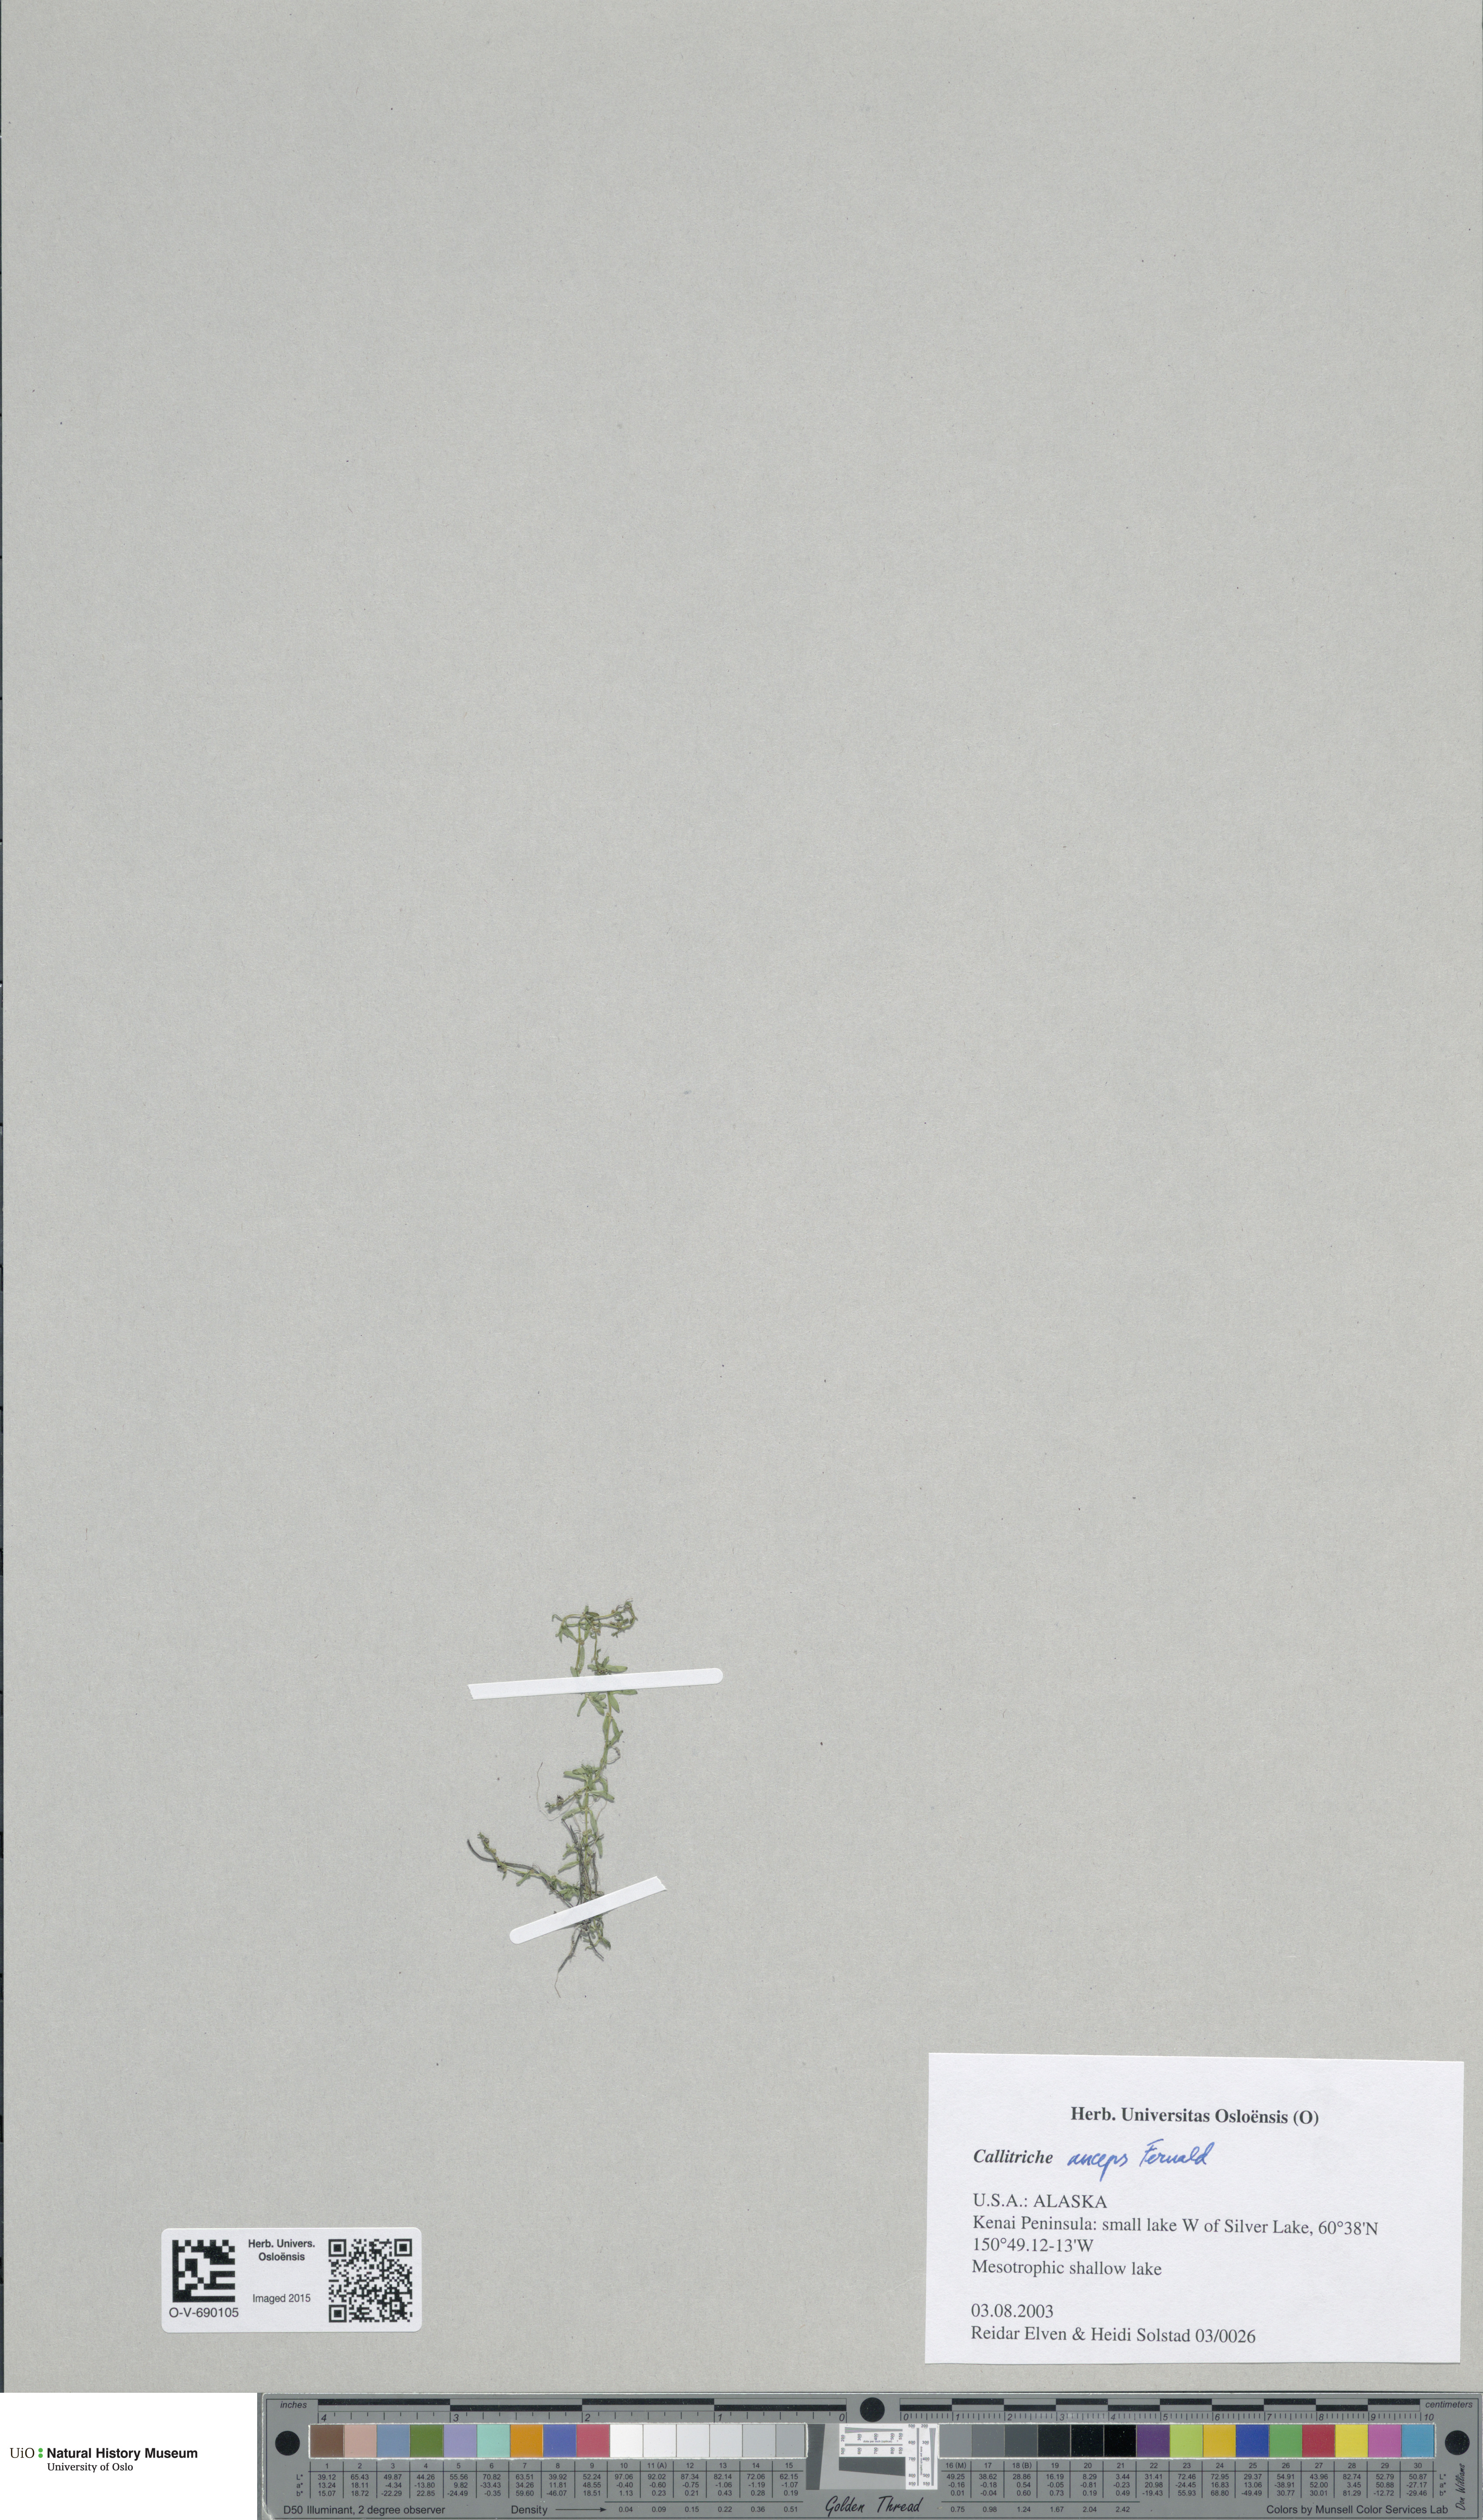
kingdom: Plantae
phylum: Tracheophyta
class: Magnoliopsida
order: Lamiales
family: Plantaginaceae
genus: Callitriche
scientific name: Callitriche heterophylla
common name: Two-headed water-starwort
